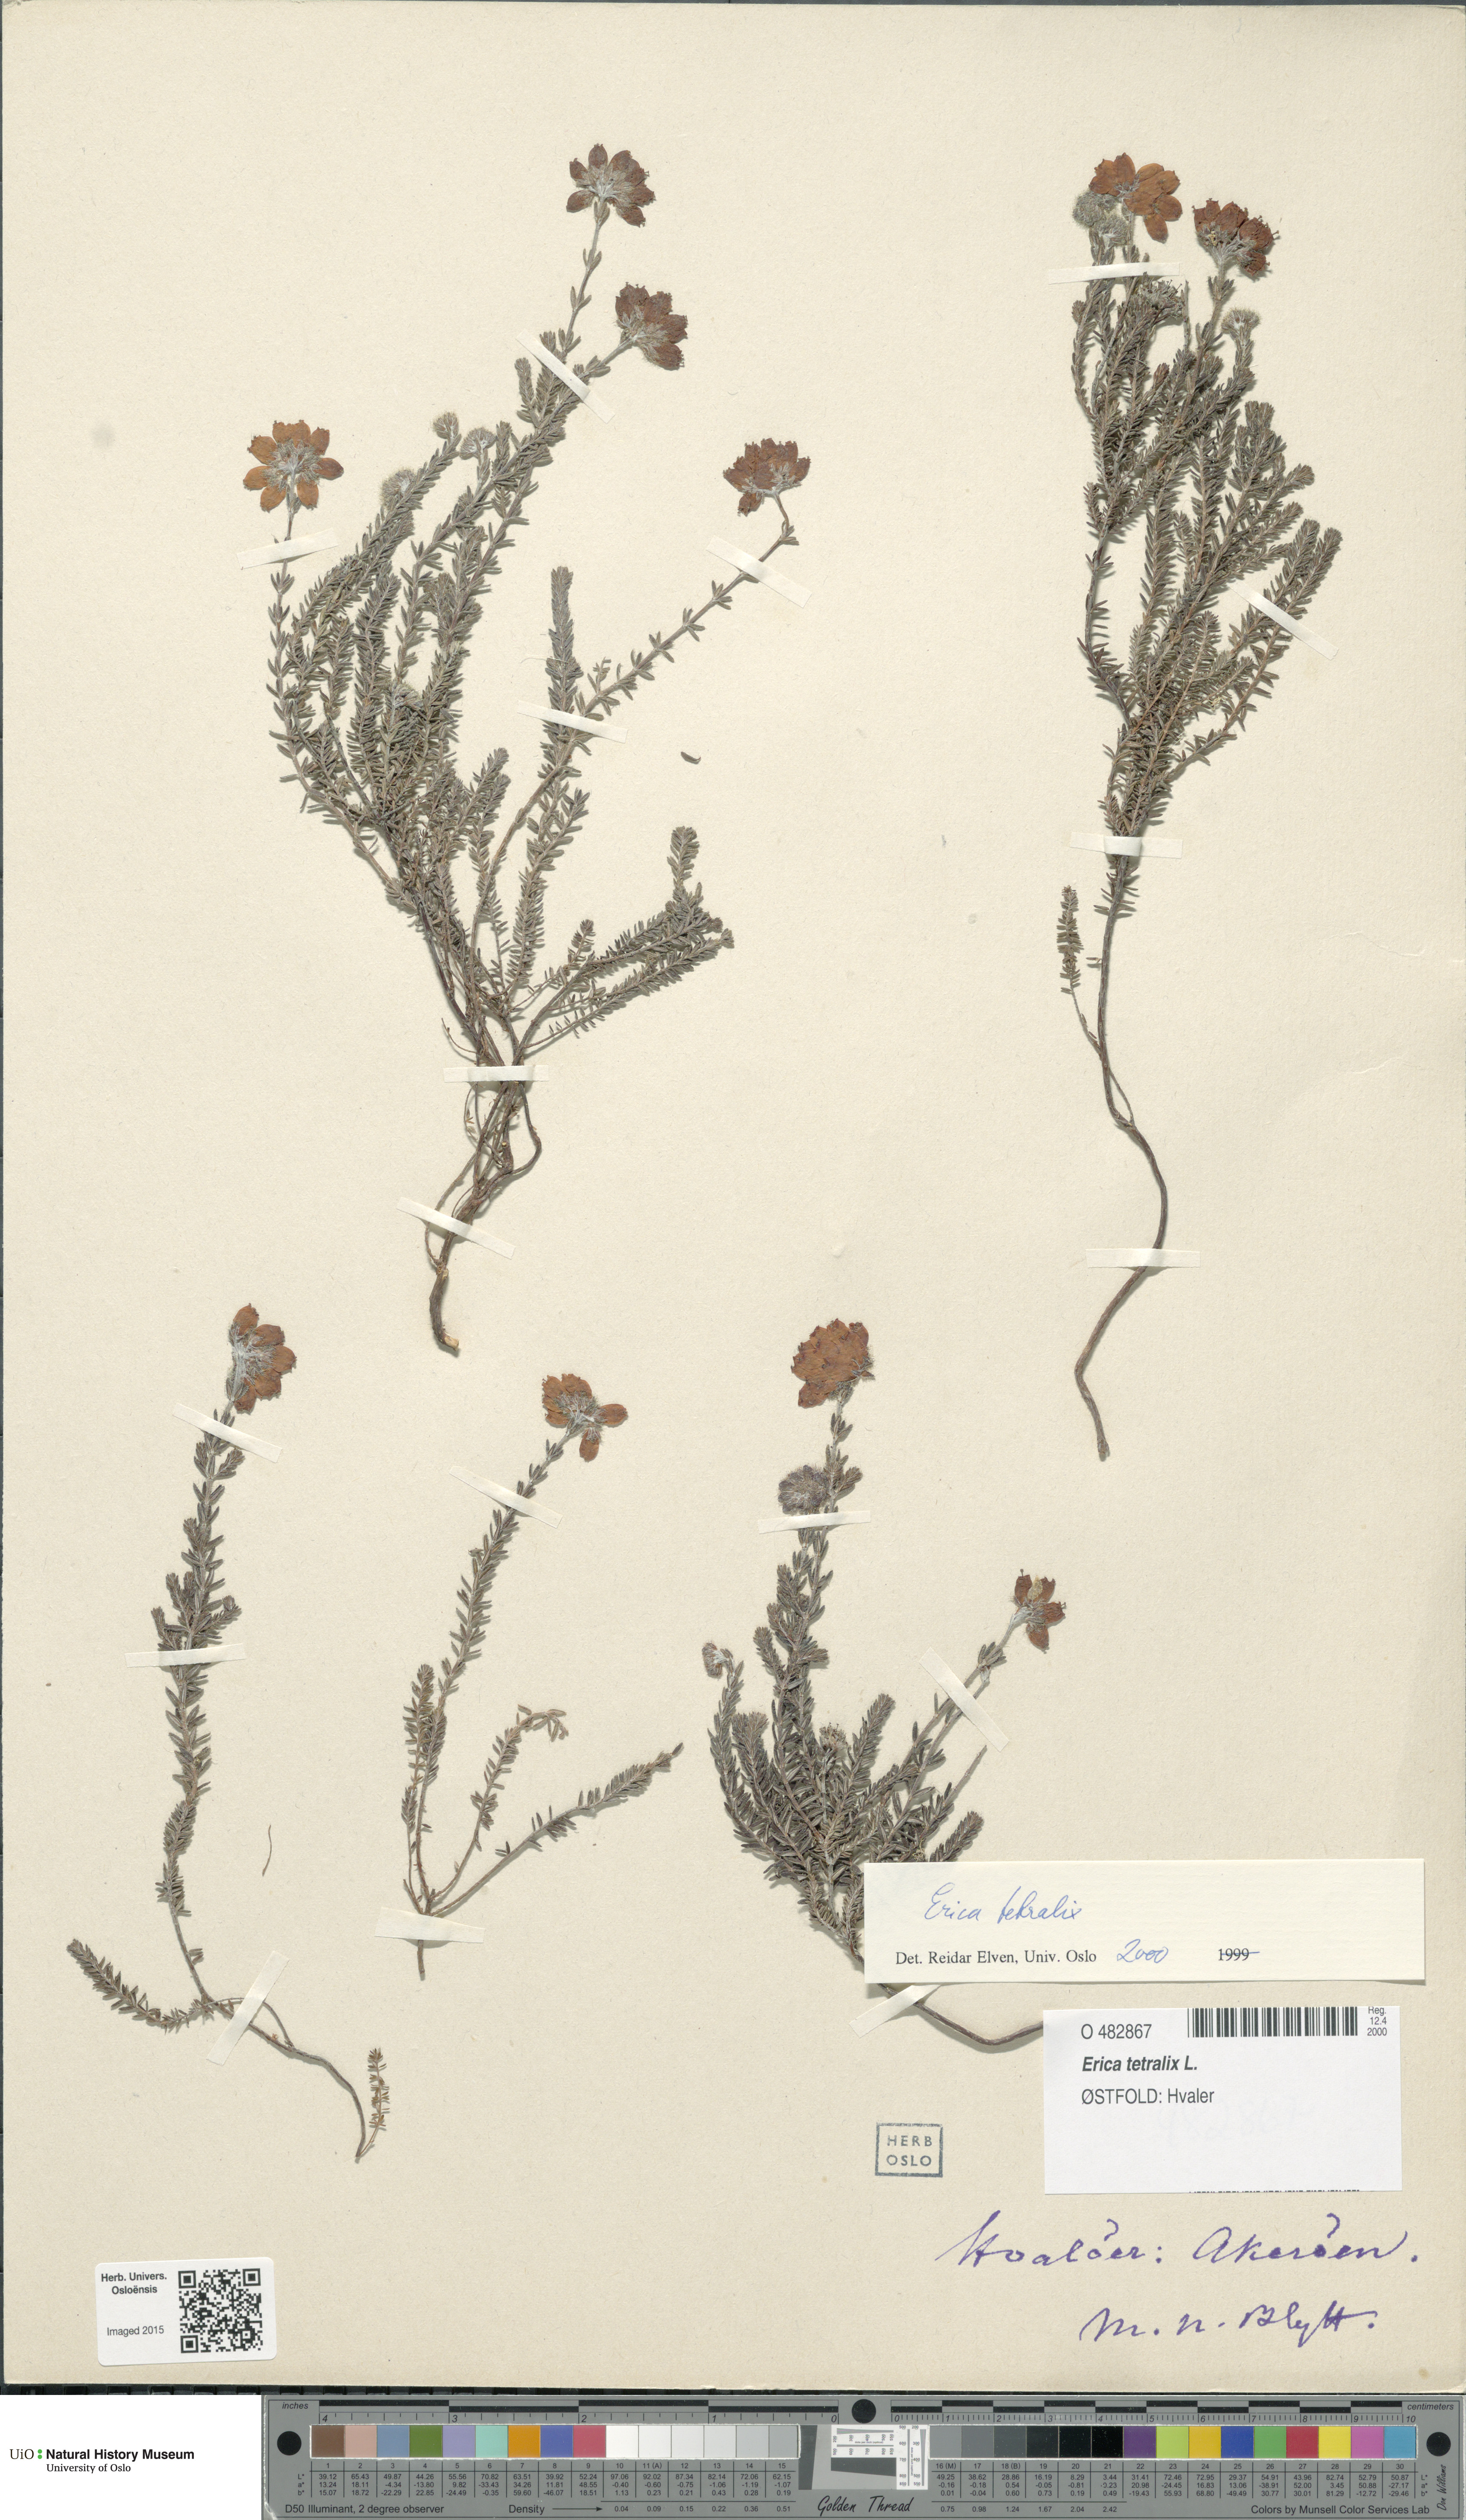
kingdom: Plantae
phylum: Tracheophyta
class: Magnoliopsida
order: Ericales
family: Ericaceae
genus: Erica
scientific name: Erica tetralix
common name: Cross-leaved heath
